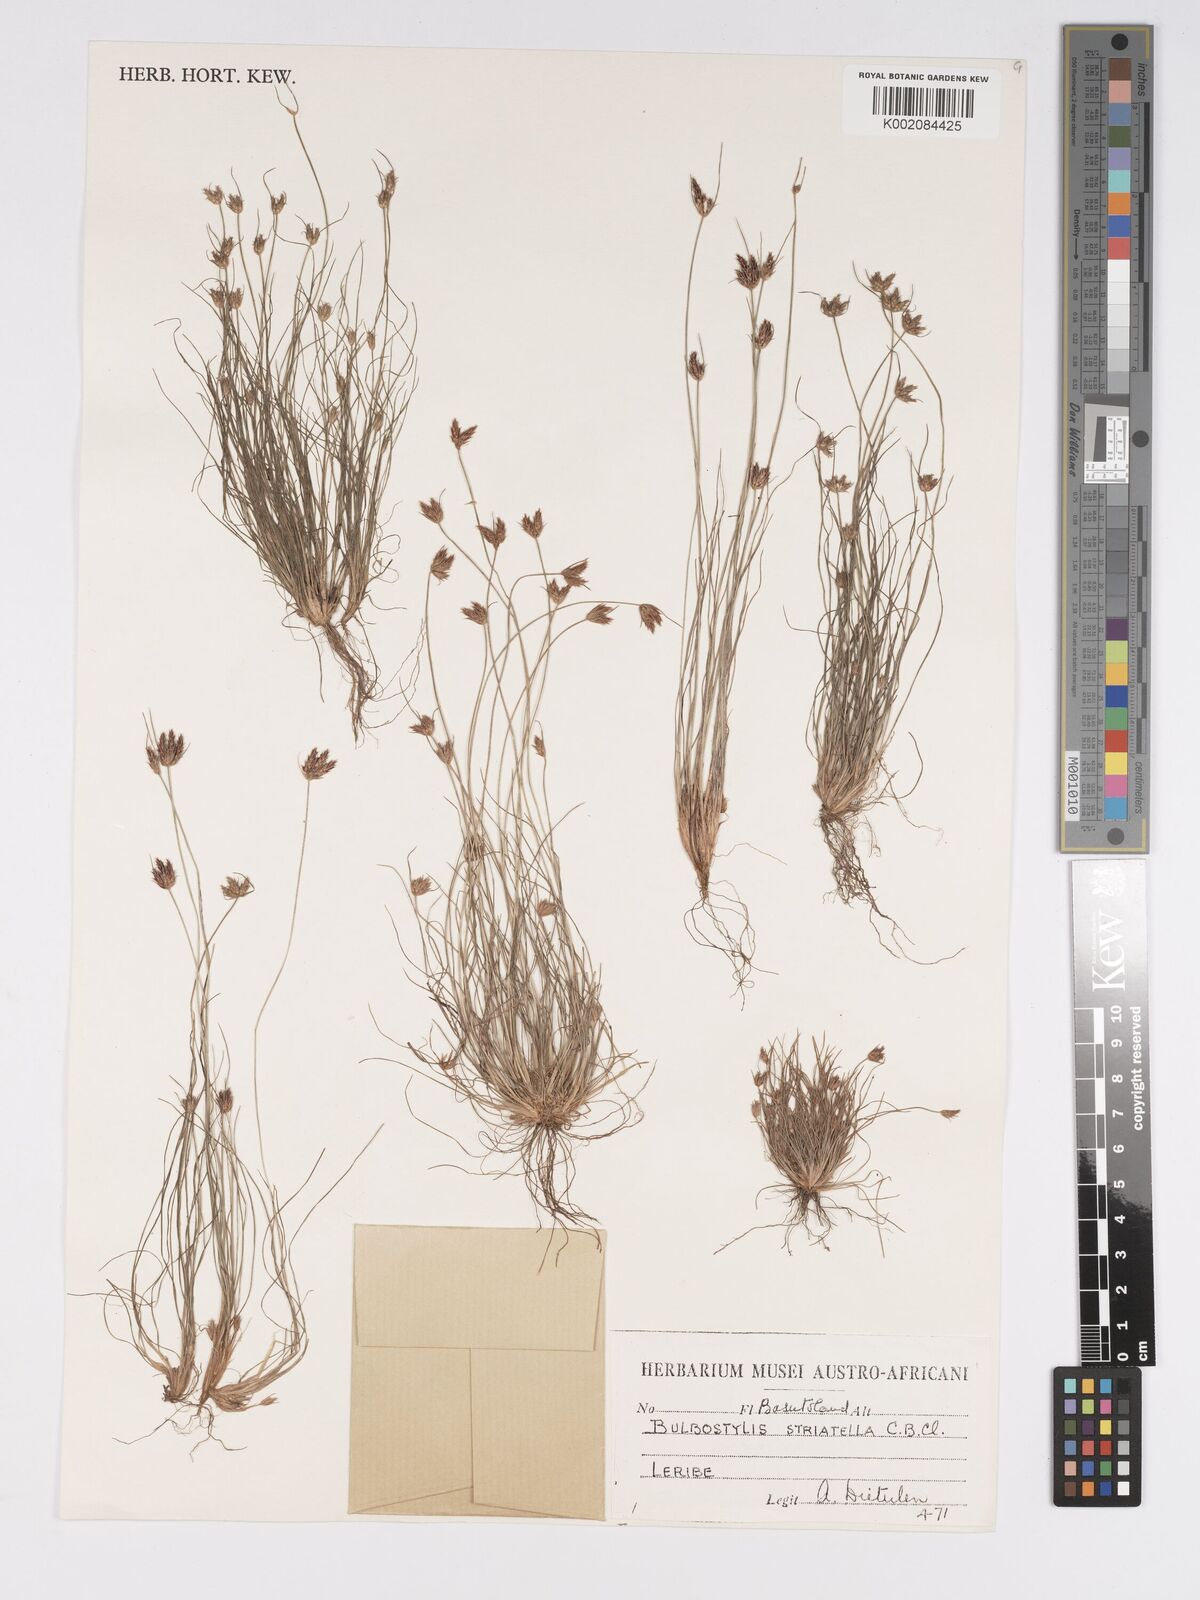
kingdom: Plantae
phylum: Tracheophyta
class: Liliopsida
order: Poales
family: Cyperaceae
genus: Bulbostylis
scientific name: Bulbostylis humilis
